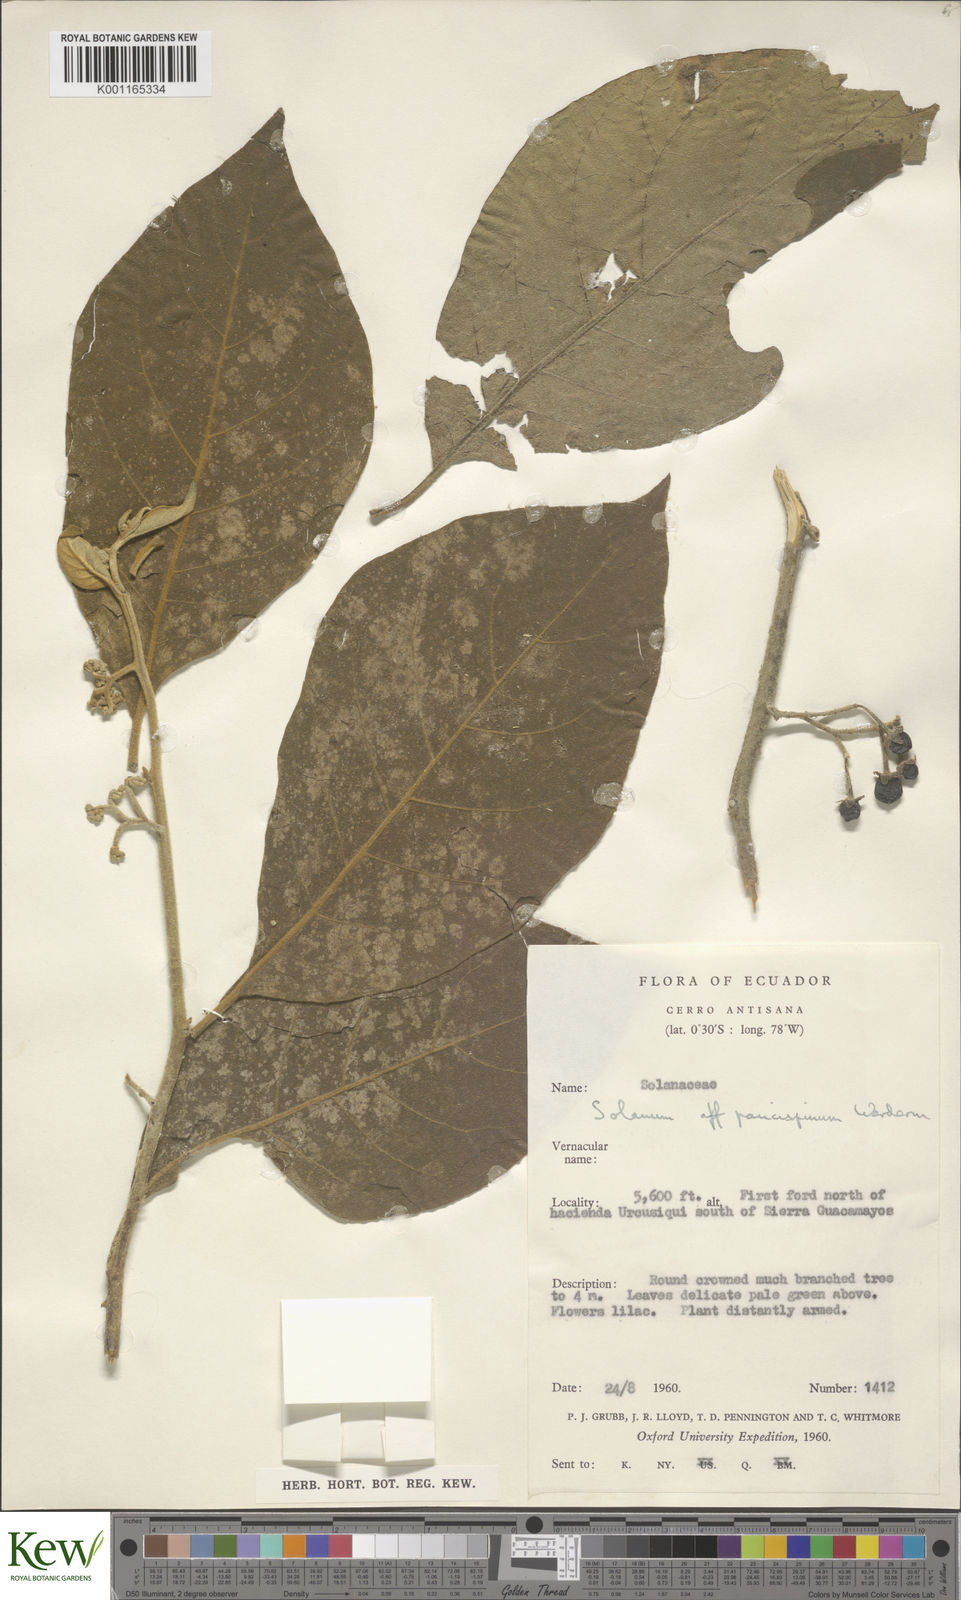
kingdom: Plantae
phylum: Tracheophyta
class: Magnoliopsida
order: Solanales
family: Solanaceae
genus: Solanum
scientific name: Solanum paucispinum
